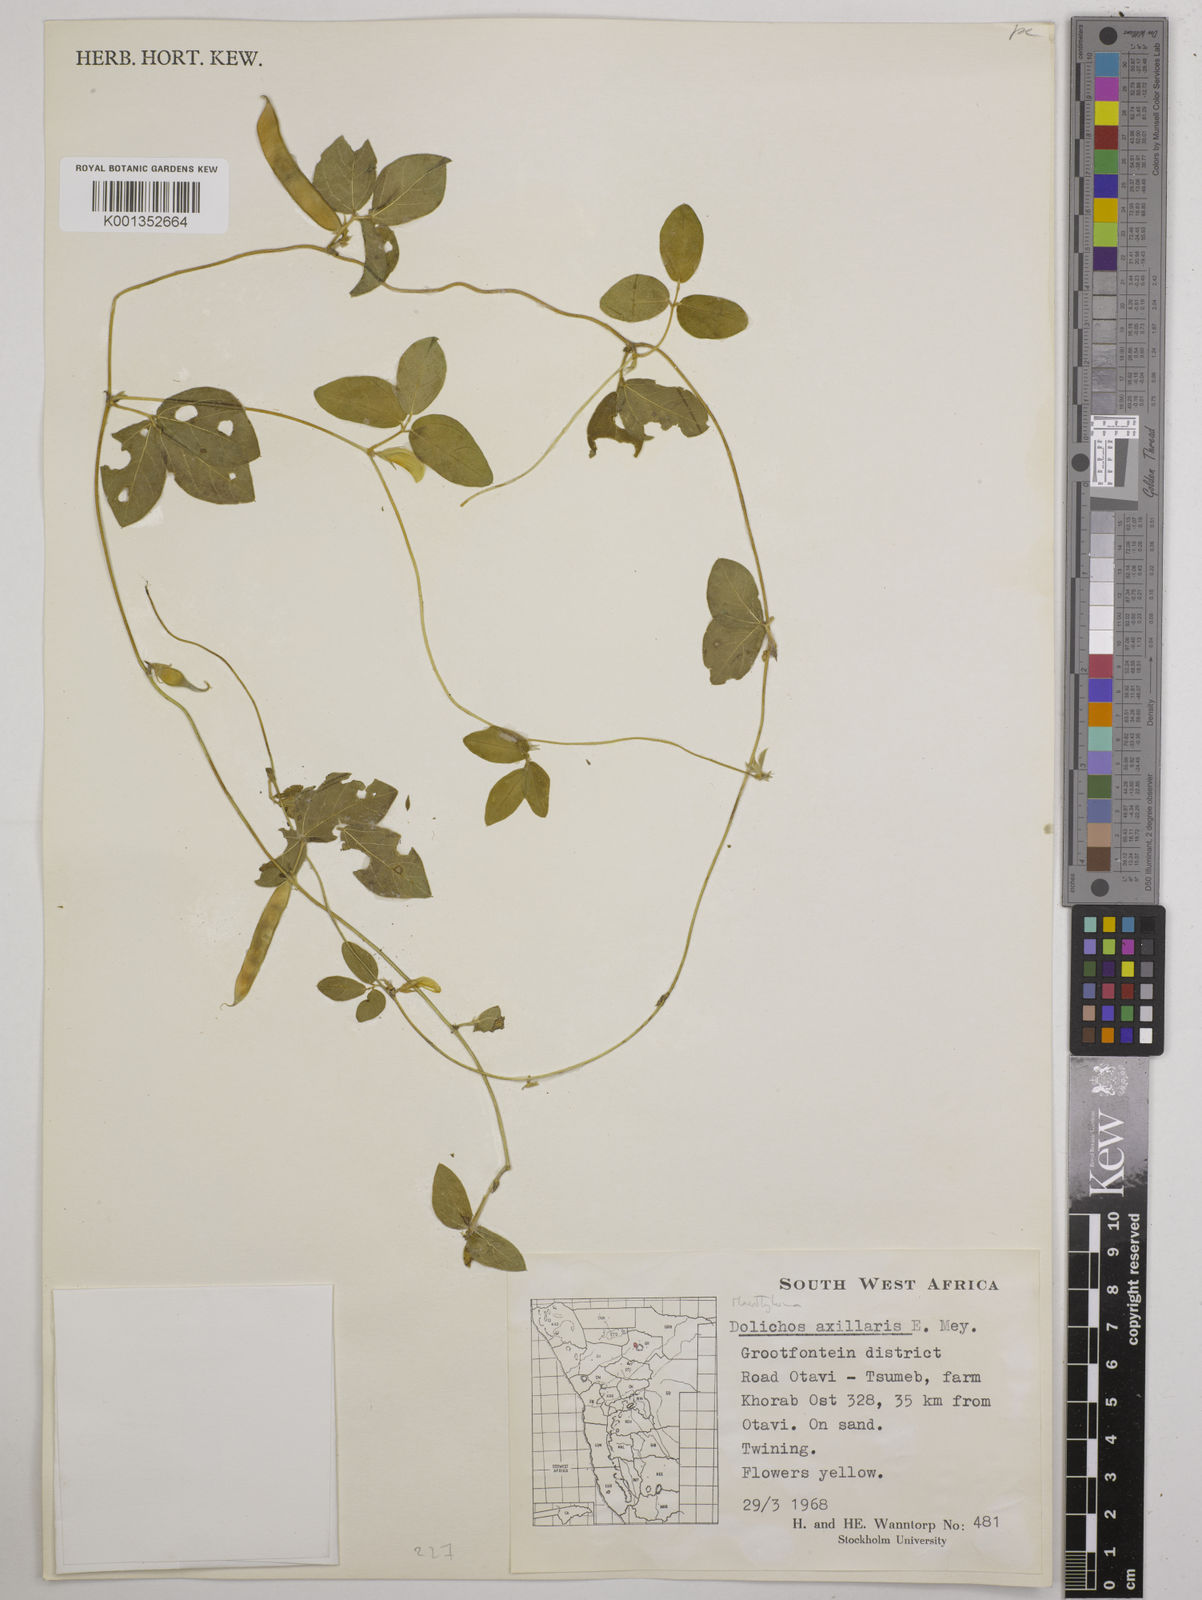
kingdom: Plantae
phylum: Tracheophyta
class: Magnoliopsida
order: Fabales
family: Fabaceae
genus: Macrotyloma
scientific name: Macrotyloma axillare
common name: Perennial horsegram
